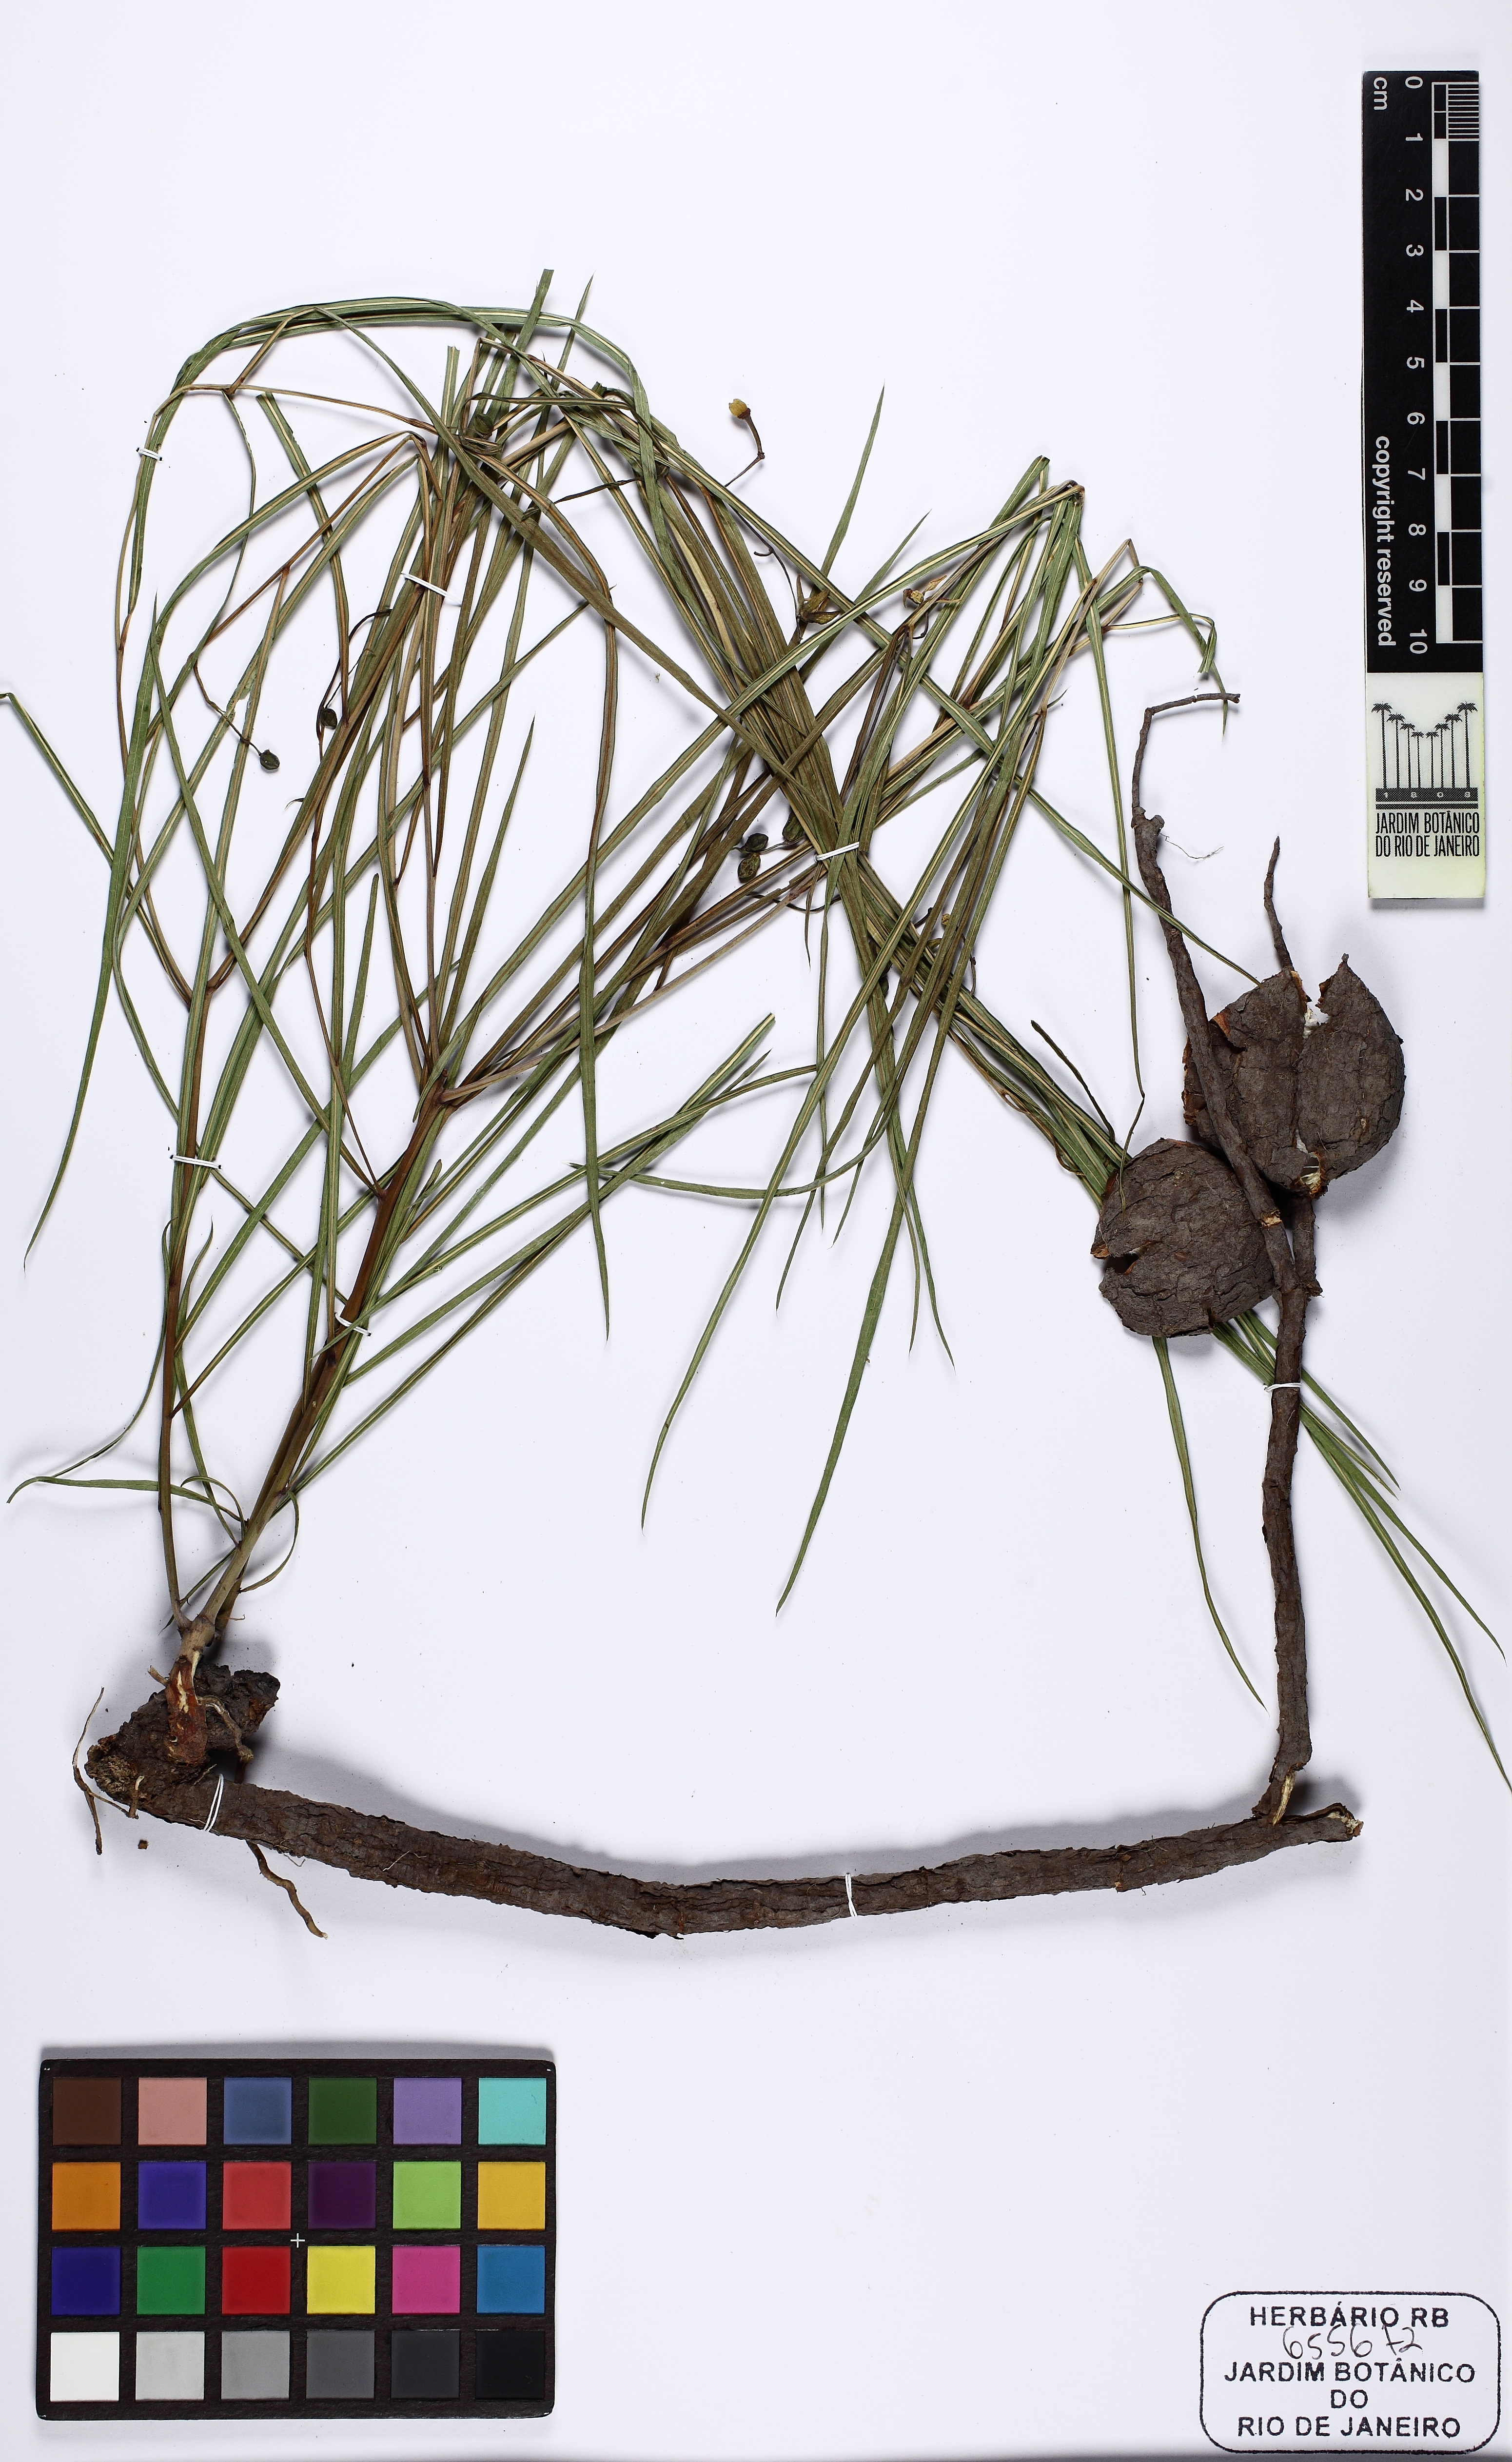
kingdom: Plantae
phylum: Tracheophyta
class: Magnoliopsida
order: Malpighiales
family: Euphorbiaceae
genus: Manihot
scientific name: Manihot
